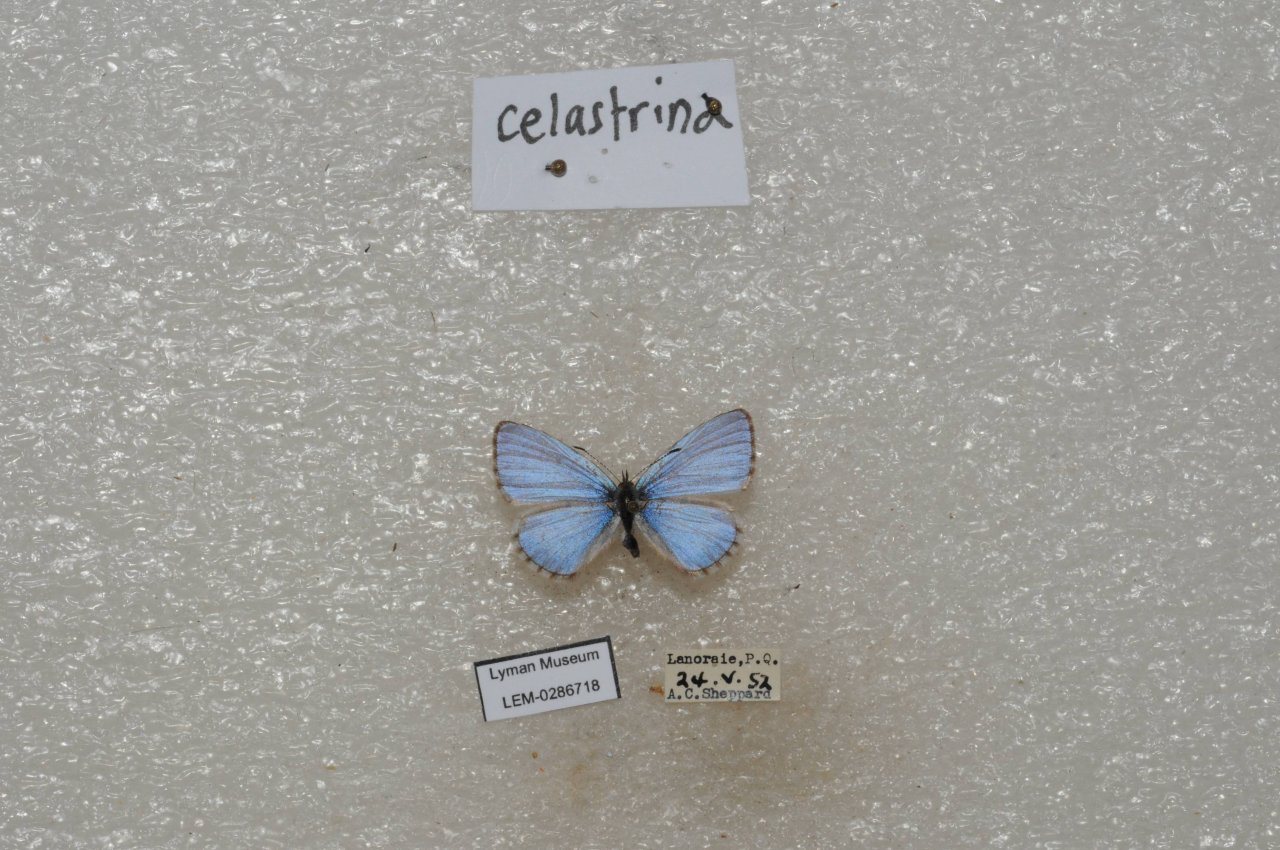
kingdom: Animalia
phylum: Arthropoda
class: Insecta
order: Lepidoptera
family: Lycaenidae
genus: Celastrina
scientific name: Celastrina lucia
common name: Northern Spring Azure
